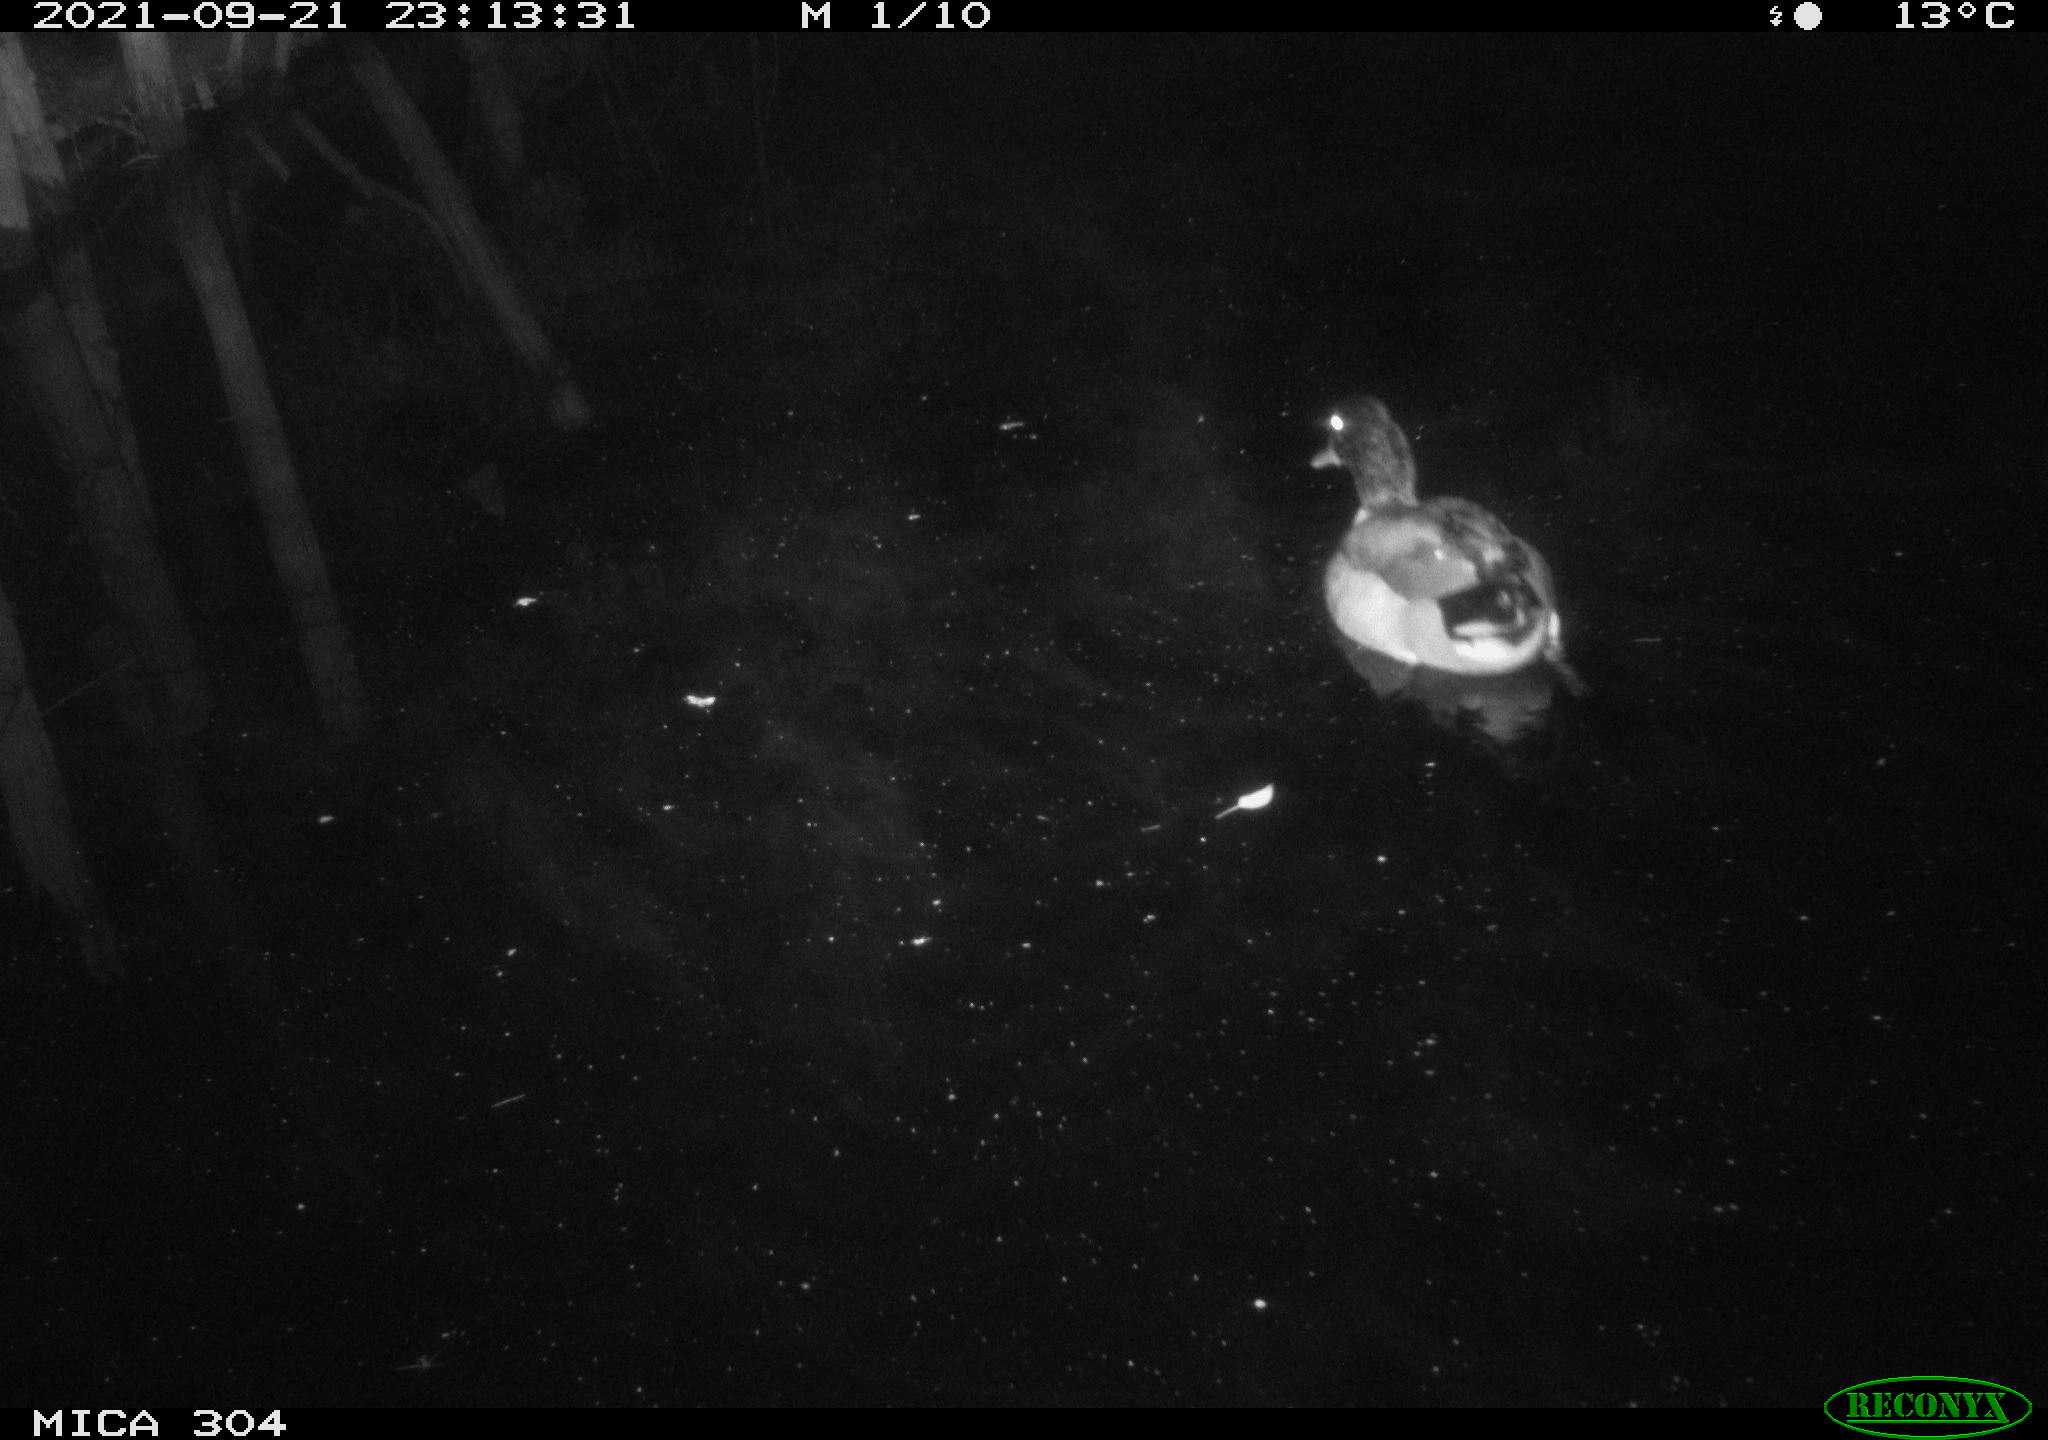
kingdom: Animalia
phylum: Chordata
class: Aves
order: Anseriformes
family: Anatidae
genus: Anas
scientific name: Anas platyrhynchos
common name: Mallard
